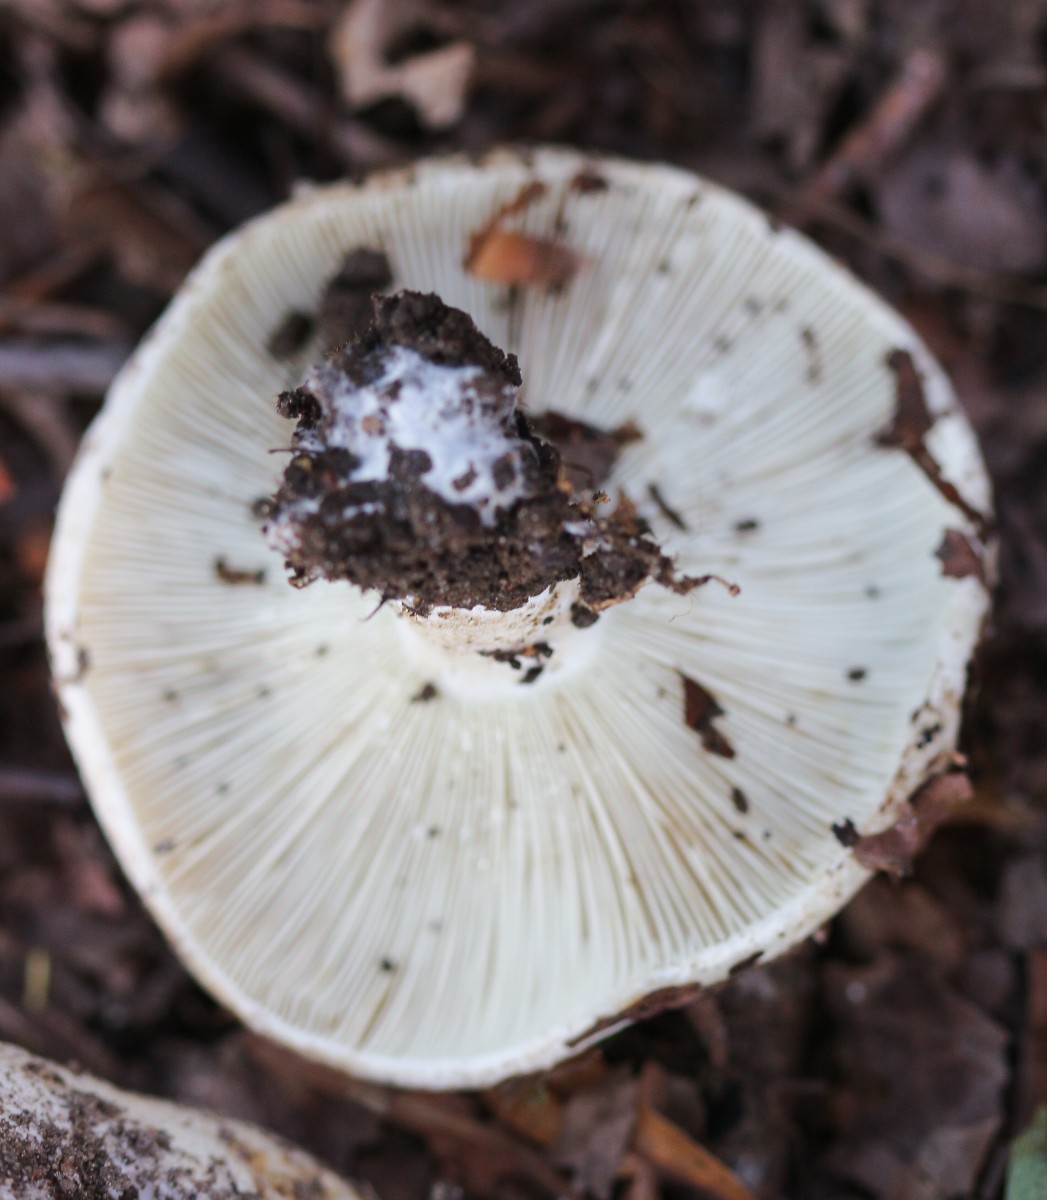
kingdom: Fungi
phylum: Basidiomycota
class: Agaricomycetes
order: Russulales
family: Russulaceae
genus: Russula
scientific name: Russula chloroides
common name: grønhalset tragt-skørhat
